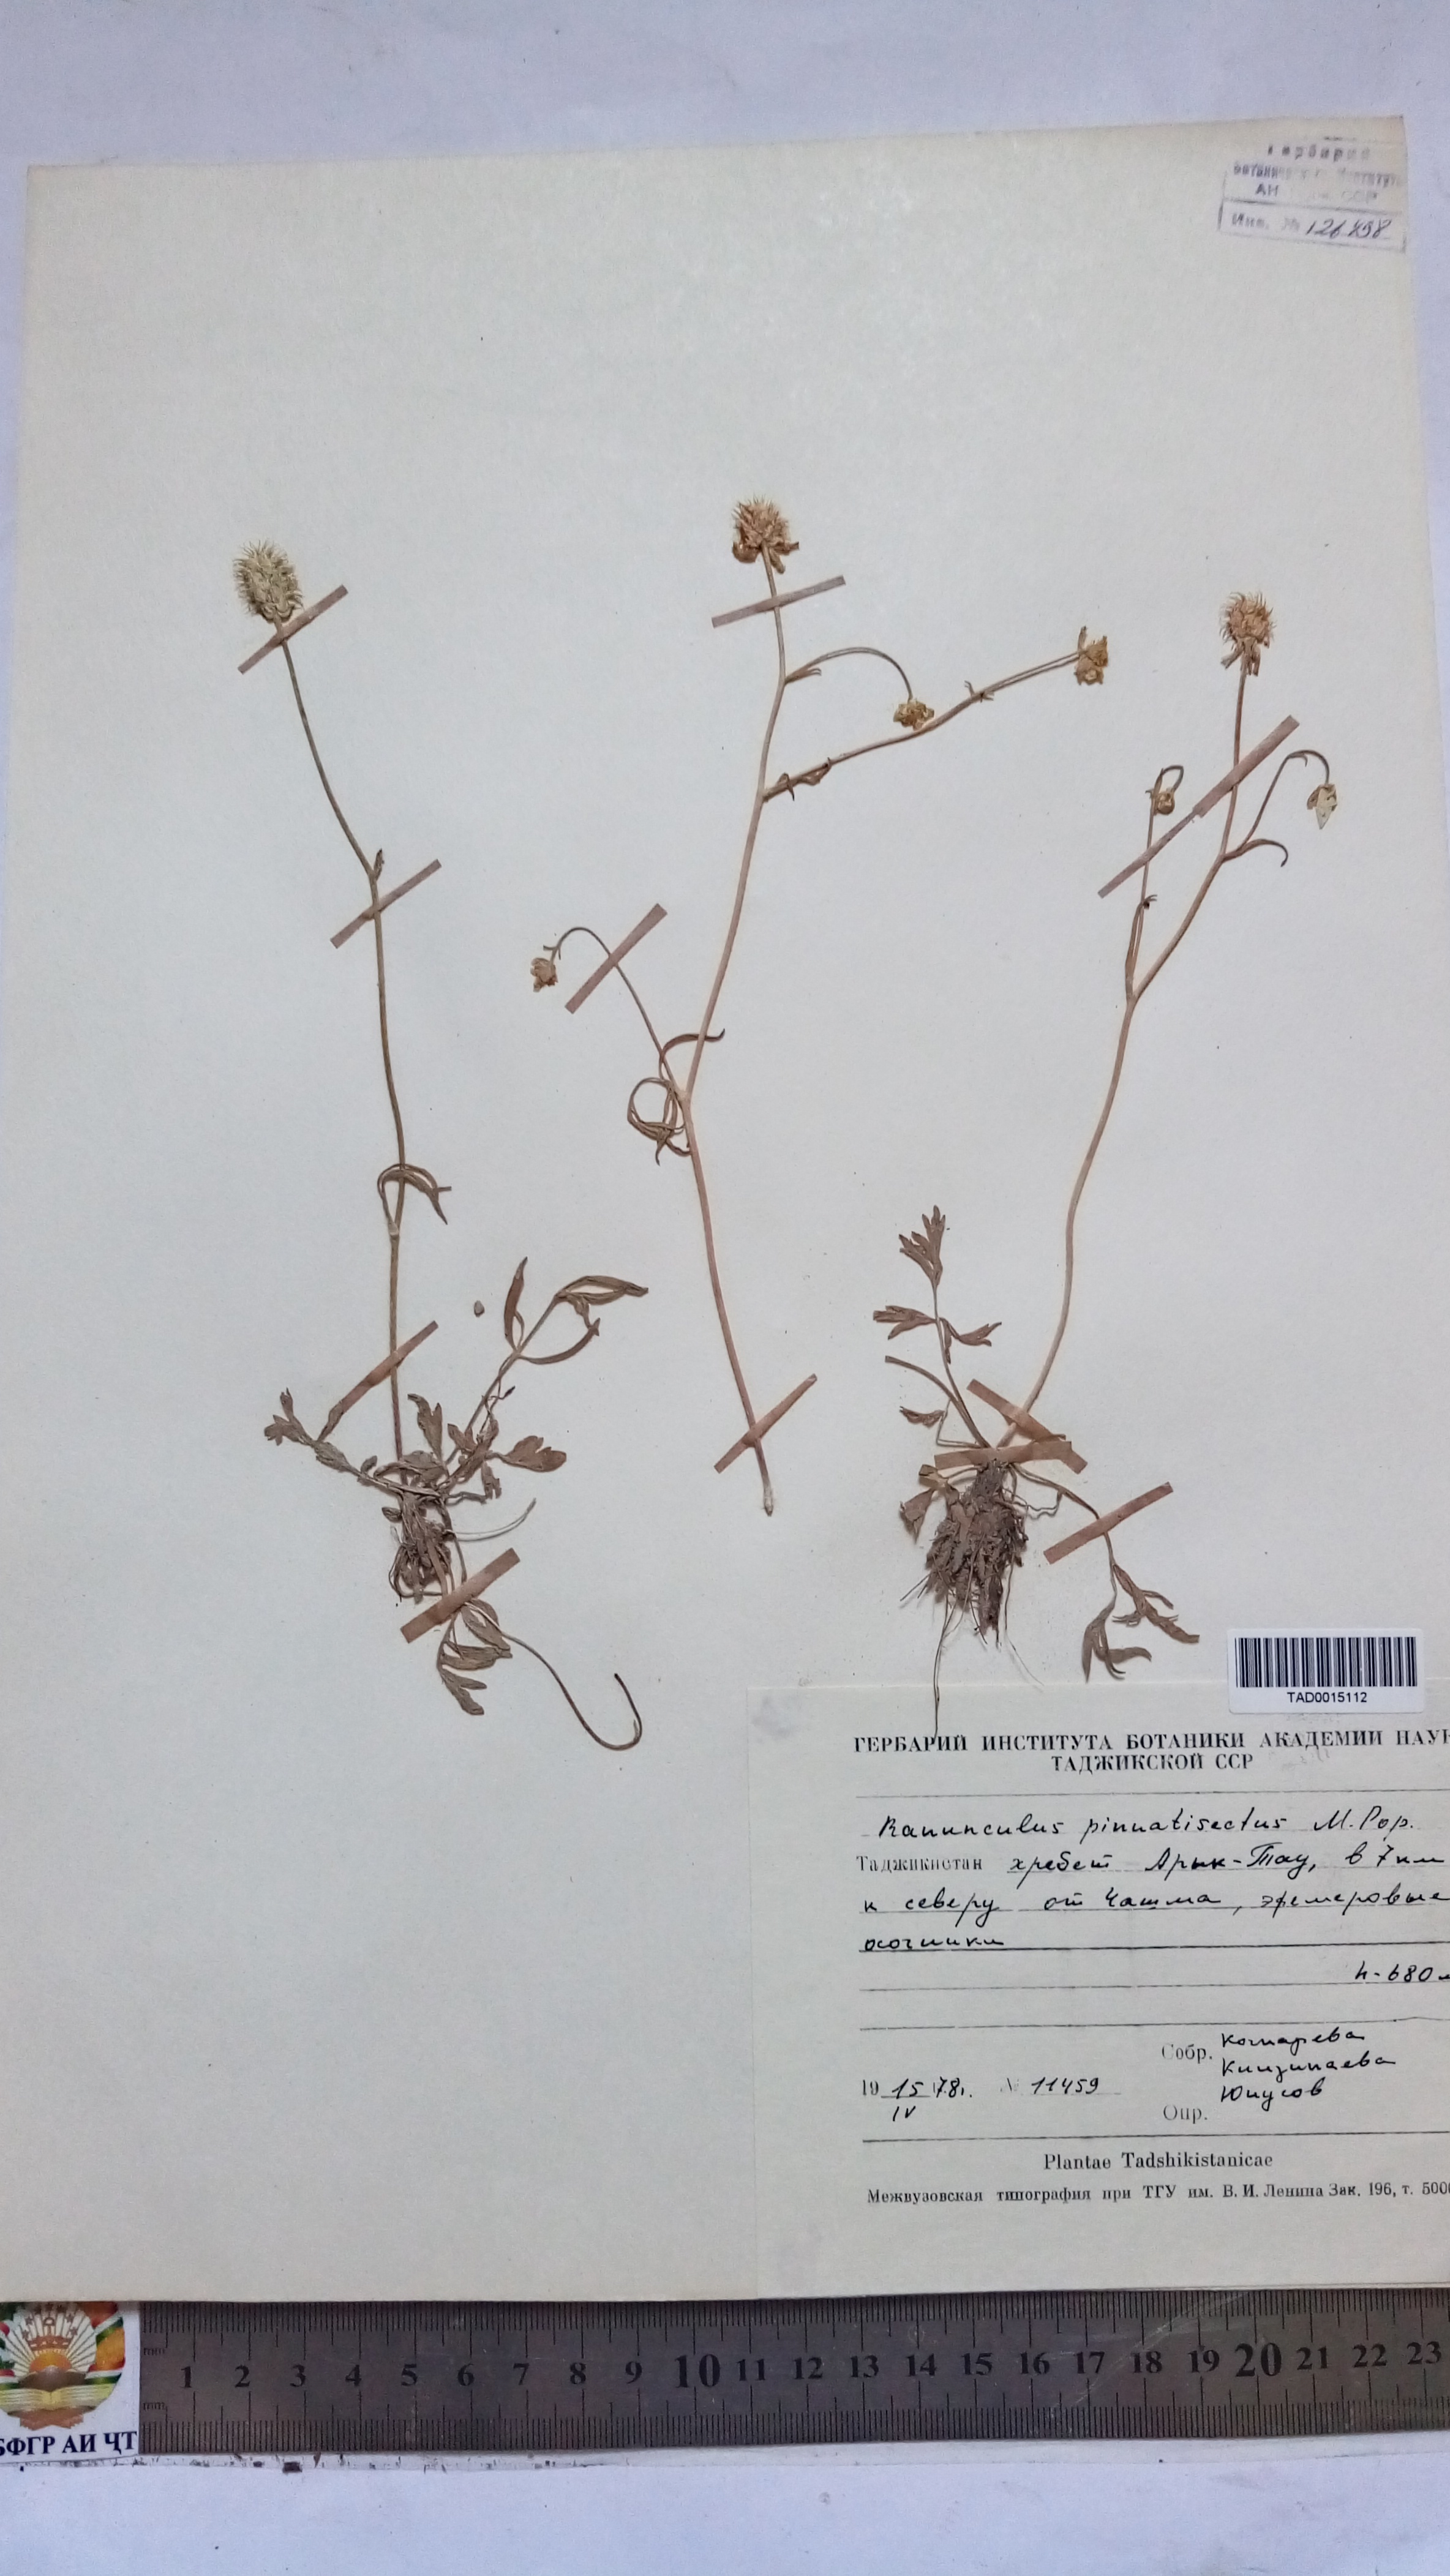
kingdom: Plantae
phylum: Tracheophyta
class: Magnoliopsida
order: Ranunculales
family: Ranunculaceae
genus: Ranunculus
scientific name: Ranunculus pinnatisectus
